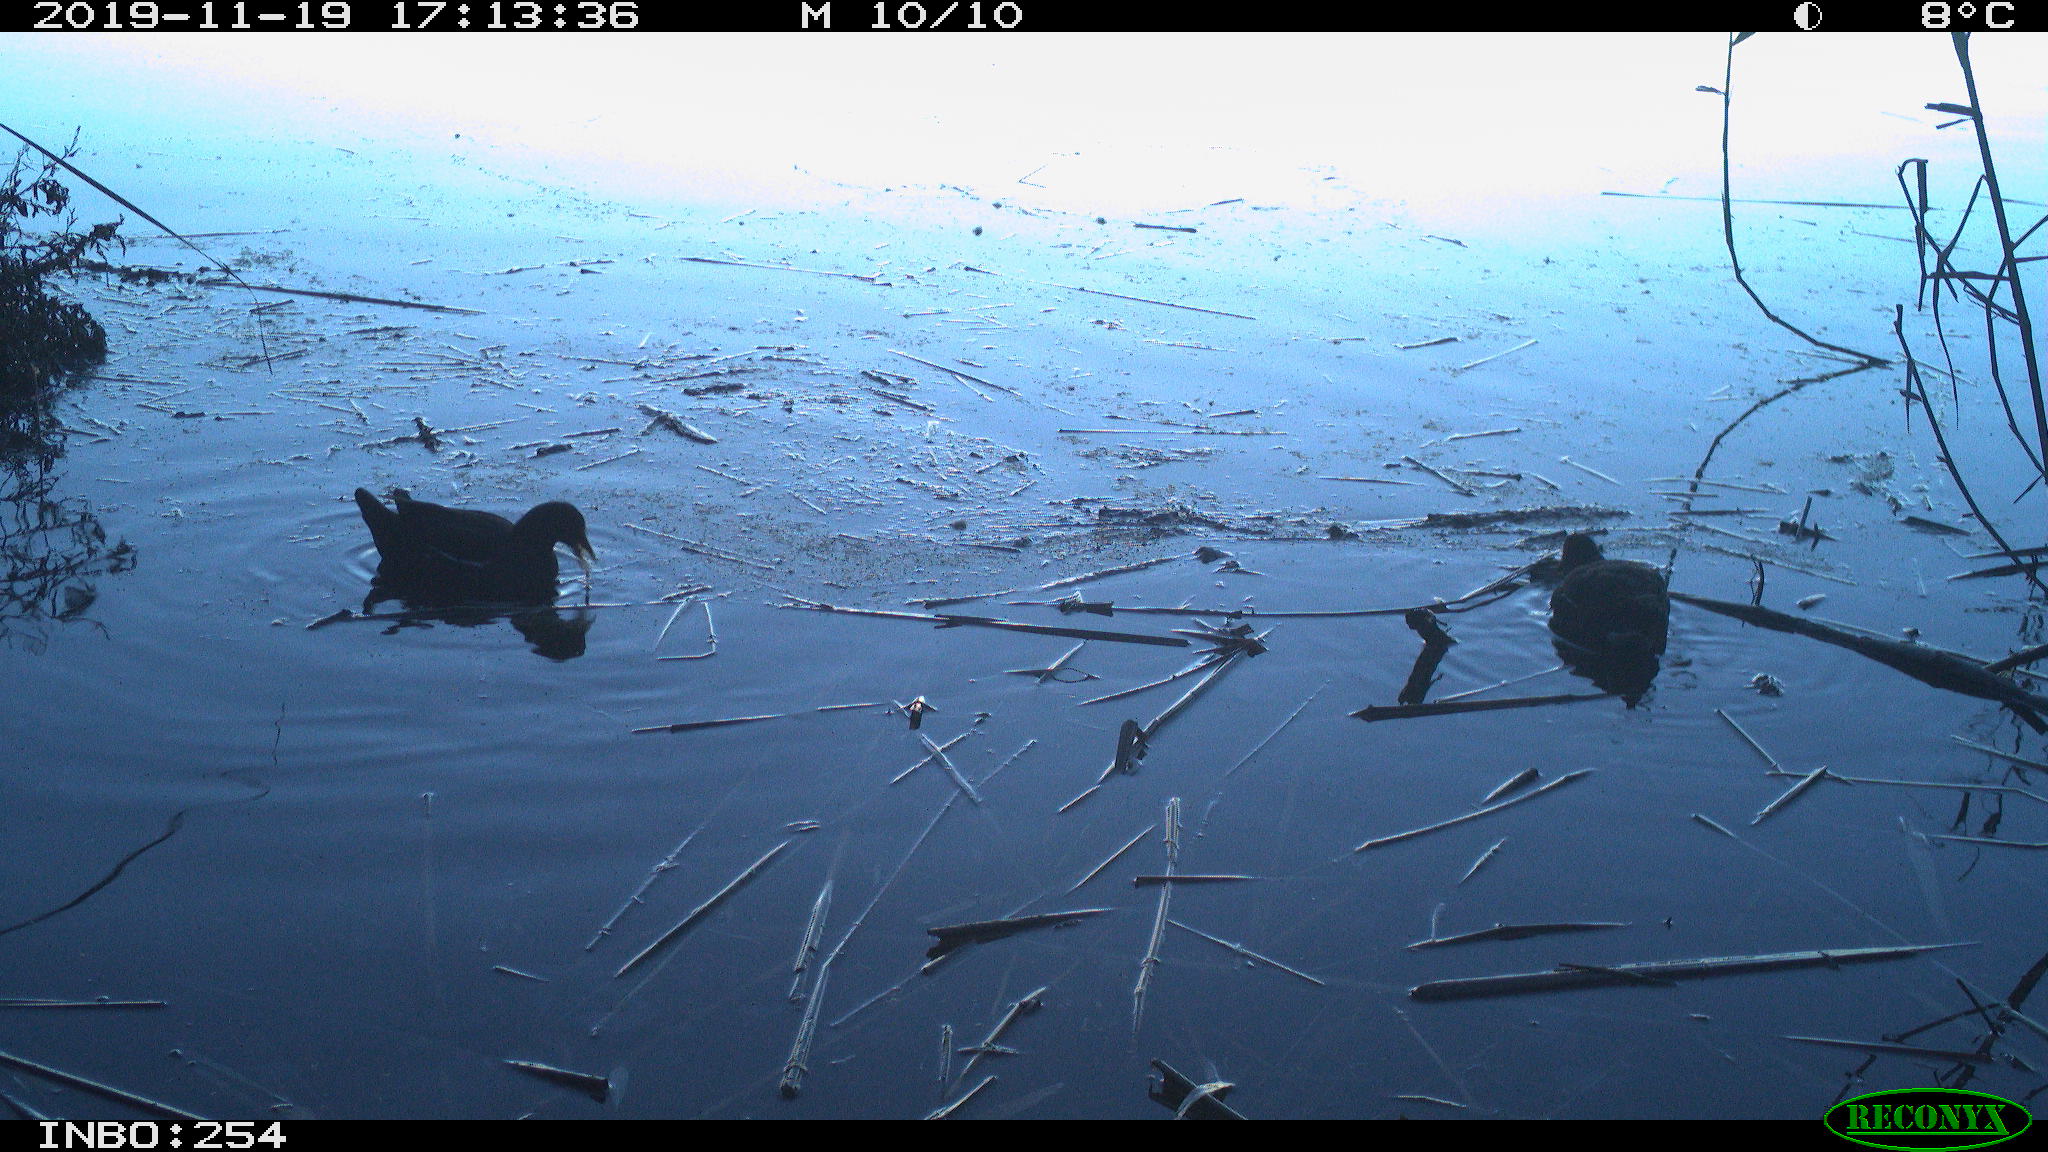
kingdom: Animalia
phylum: Chordata
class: Aves
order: Gruiformes
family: Rallidae
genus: Gallinula
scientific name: Gallinula chloropus
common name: Common moorhen
